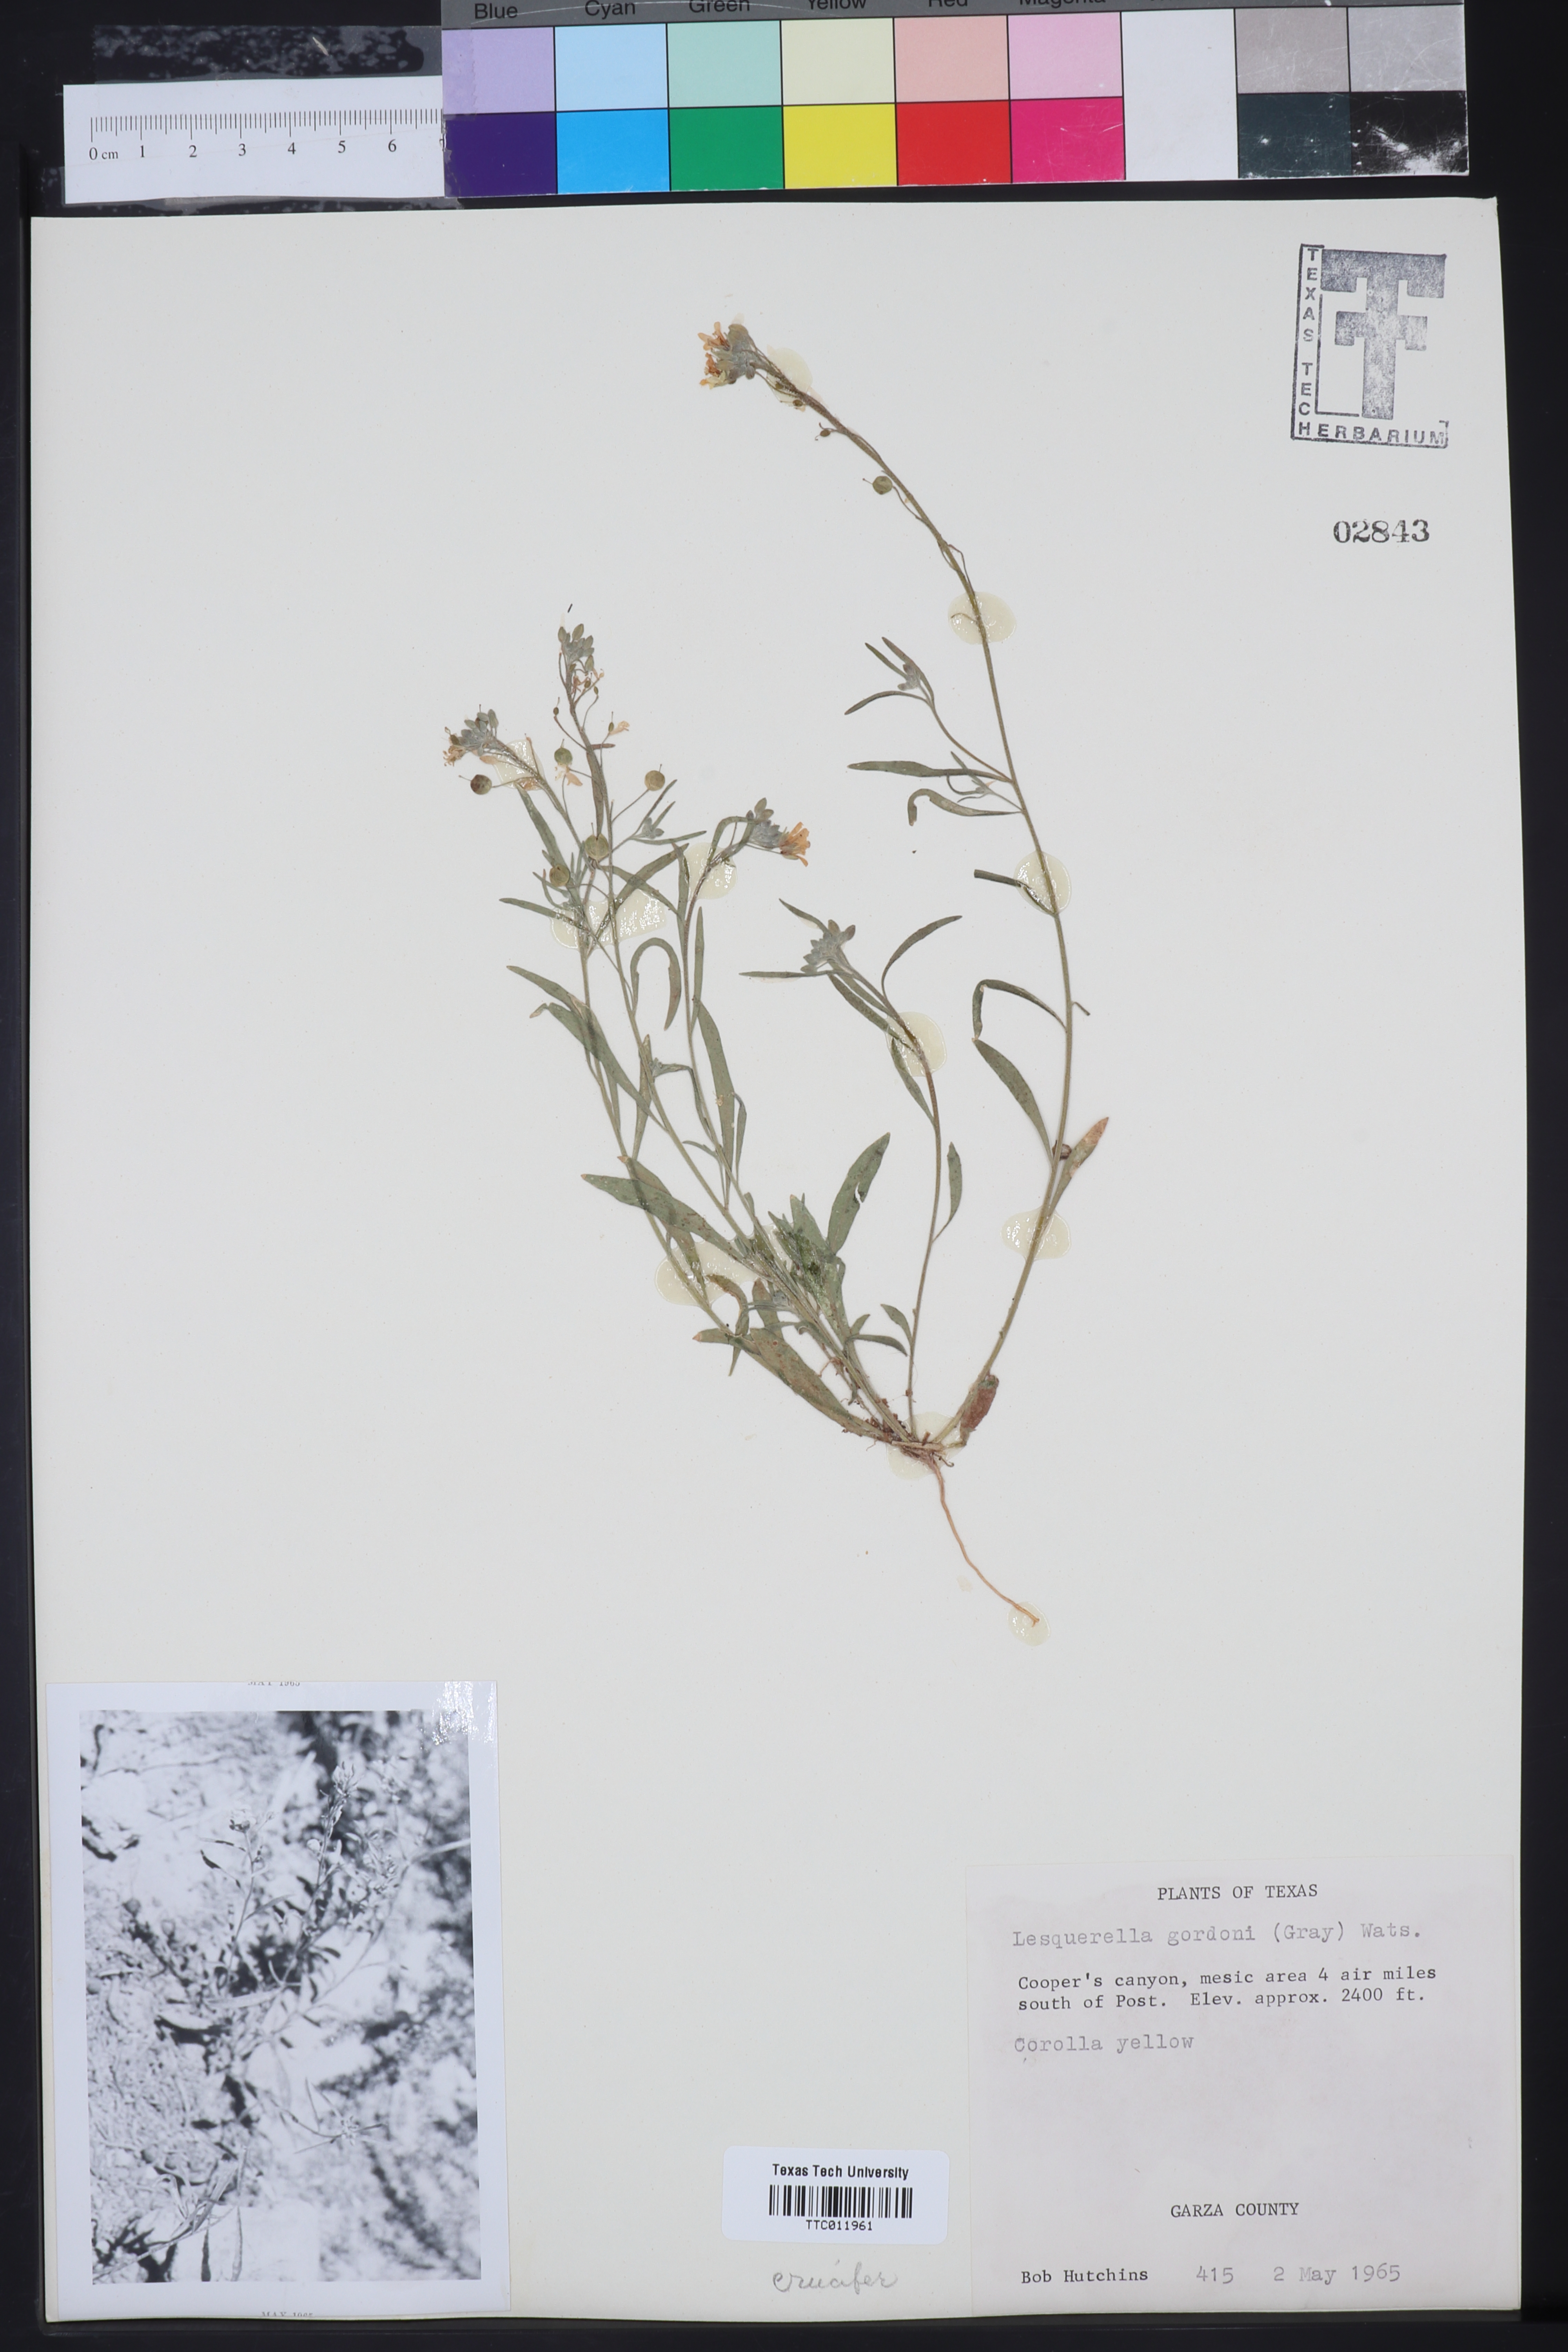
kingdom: Plantae
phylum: Tracheophyta
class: Magnoliopsida
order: Brassicales
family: Brassicaceae
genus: Physaria
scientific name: Physaria gordonii
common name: Gordon's bladderpod
